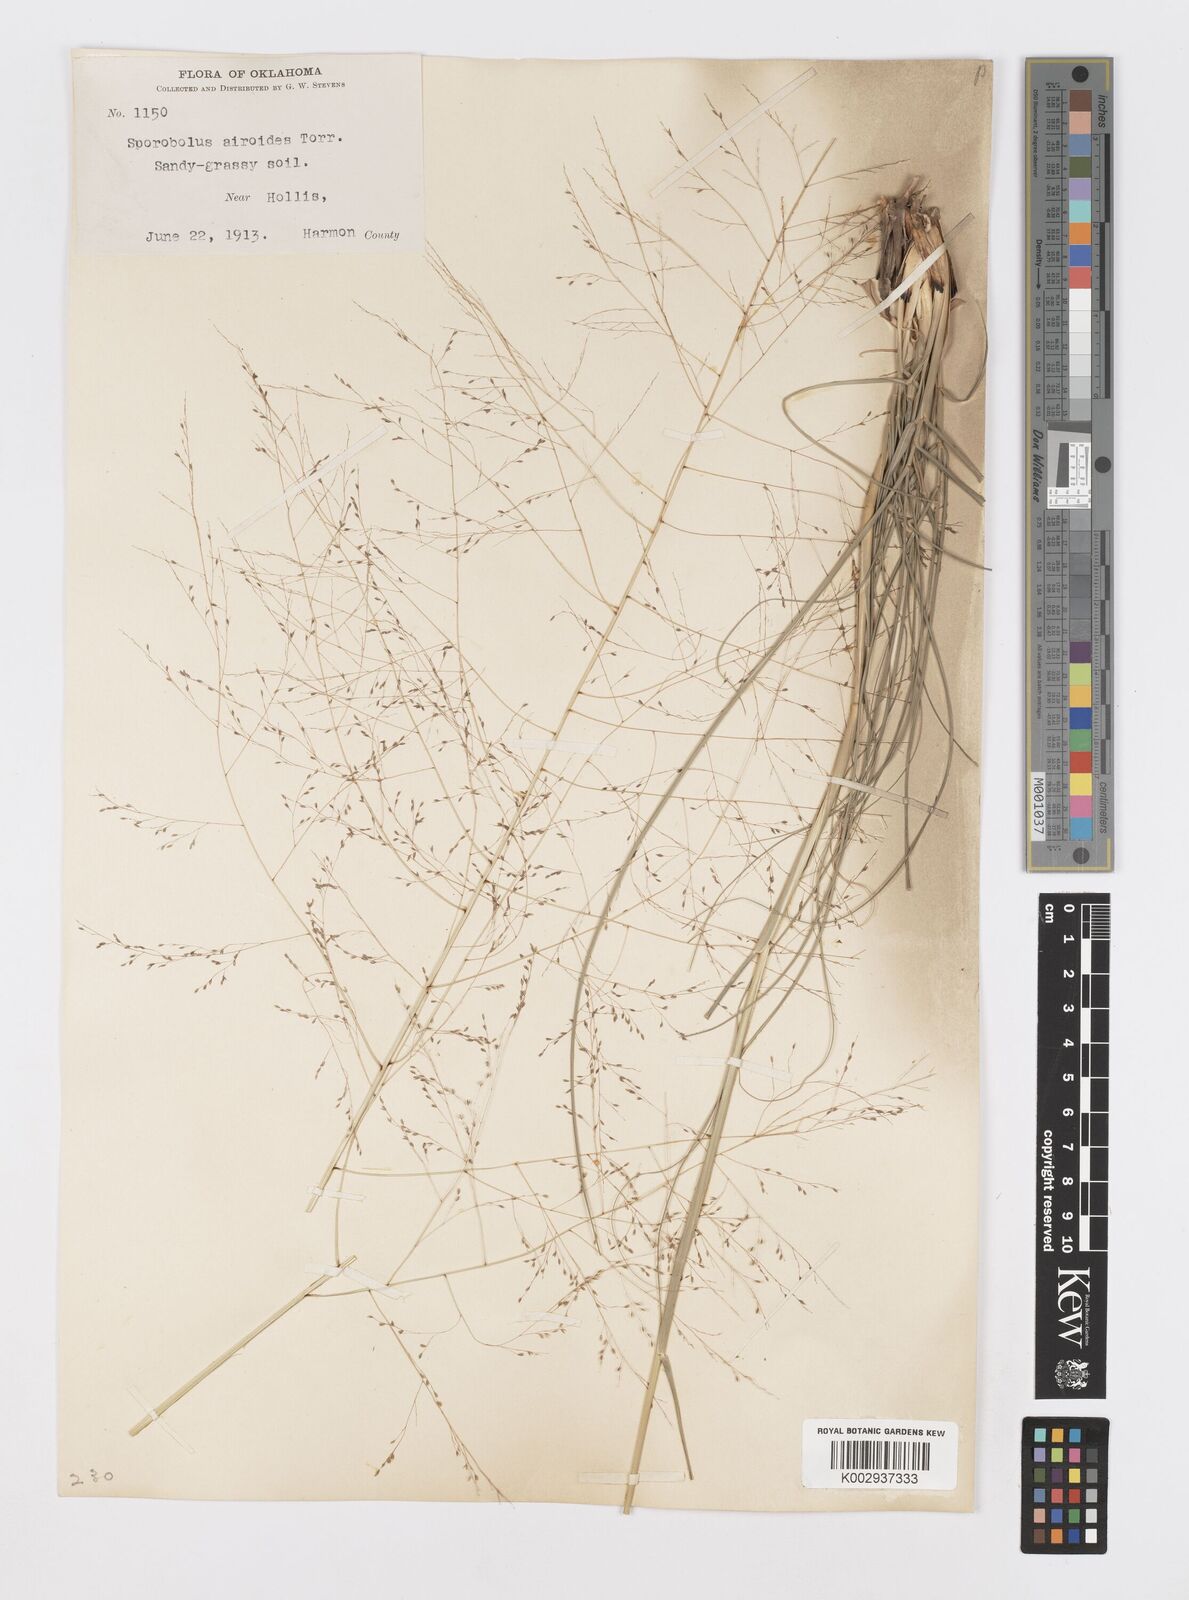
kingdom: Plantae
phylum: Tracheophyta
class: Liliopsida
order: Poales
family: Poaceae
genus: Sporobolus
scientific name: Sporobolus airoides
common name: Alkali sacaton
